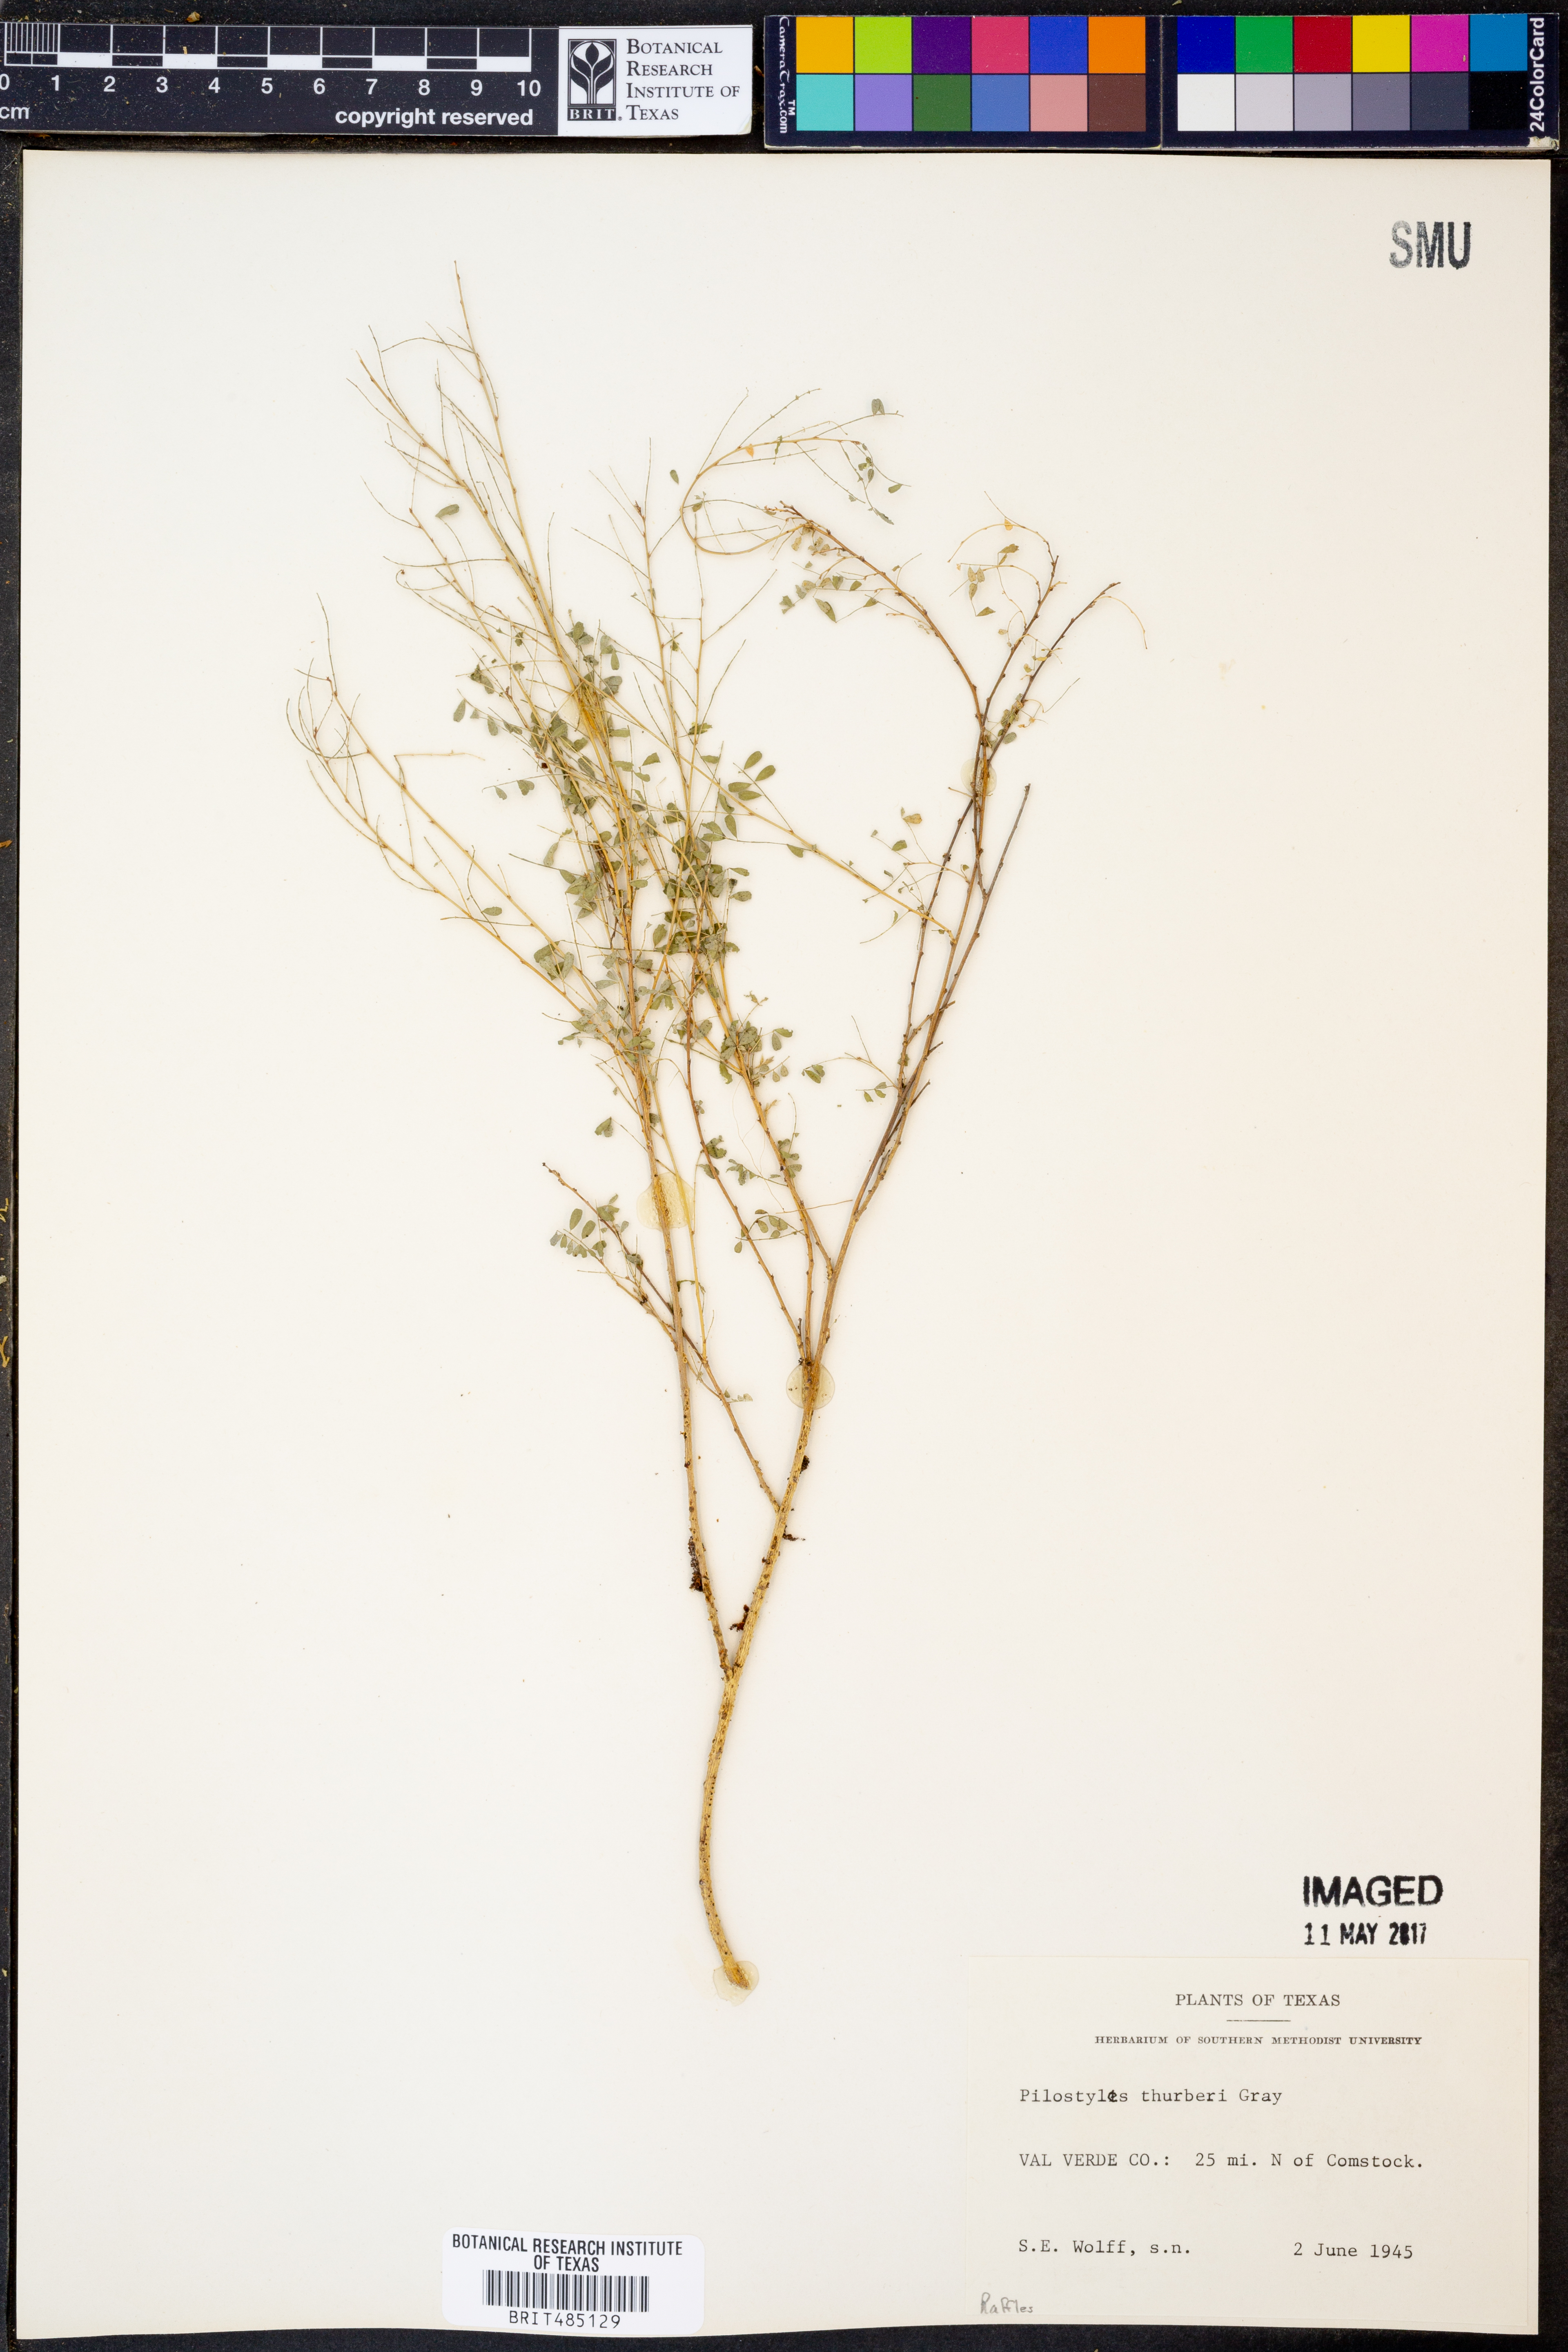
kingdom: Plantae
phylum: Tracheophyta
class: Magnoliopsida
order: Cucurbitales
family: Apodanthaceae
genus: Pilostyles
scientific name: Pilostyles thurberi
